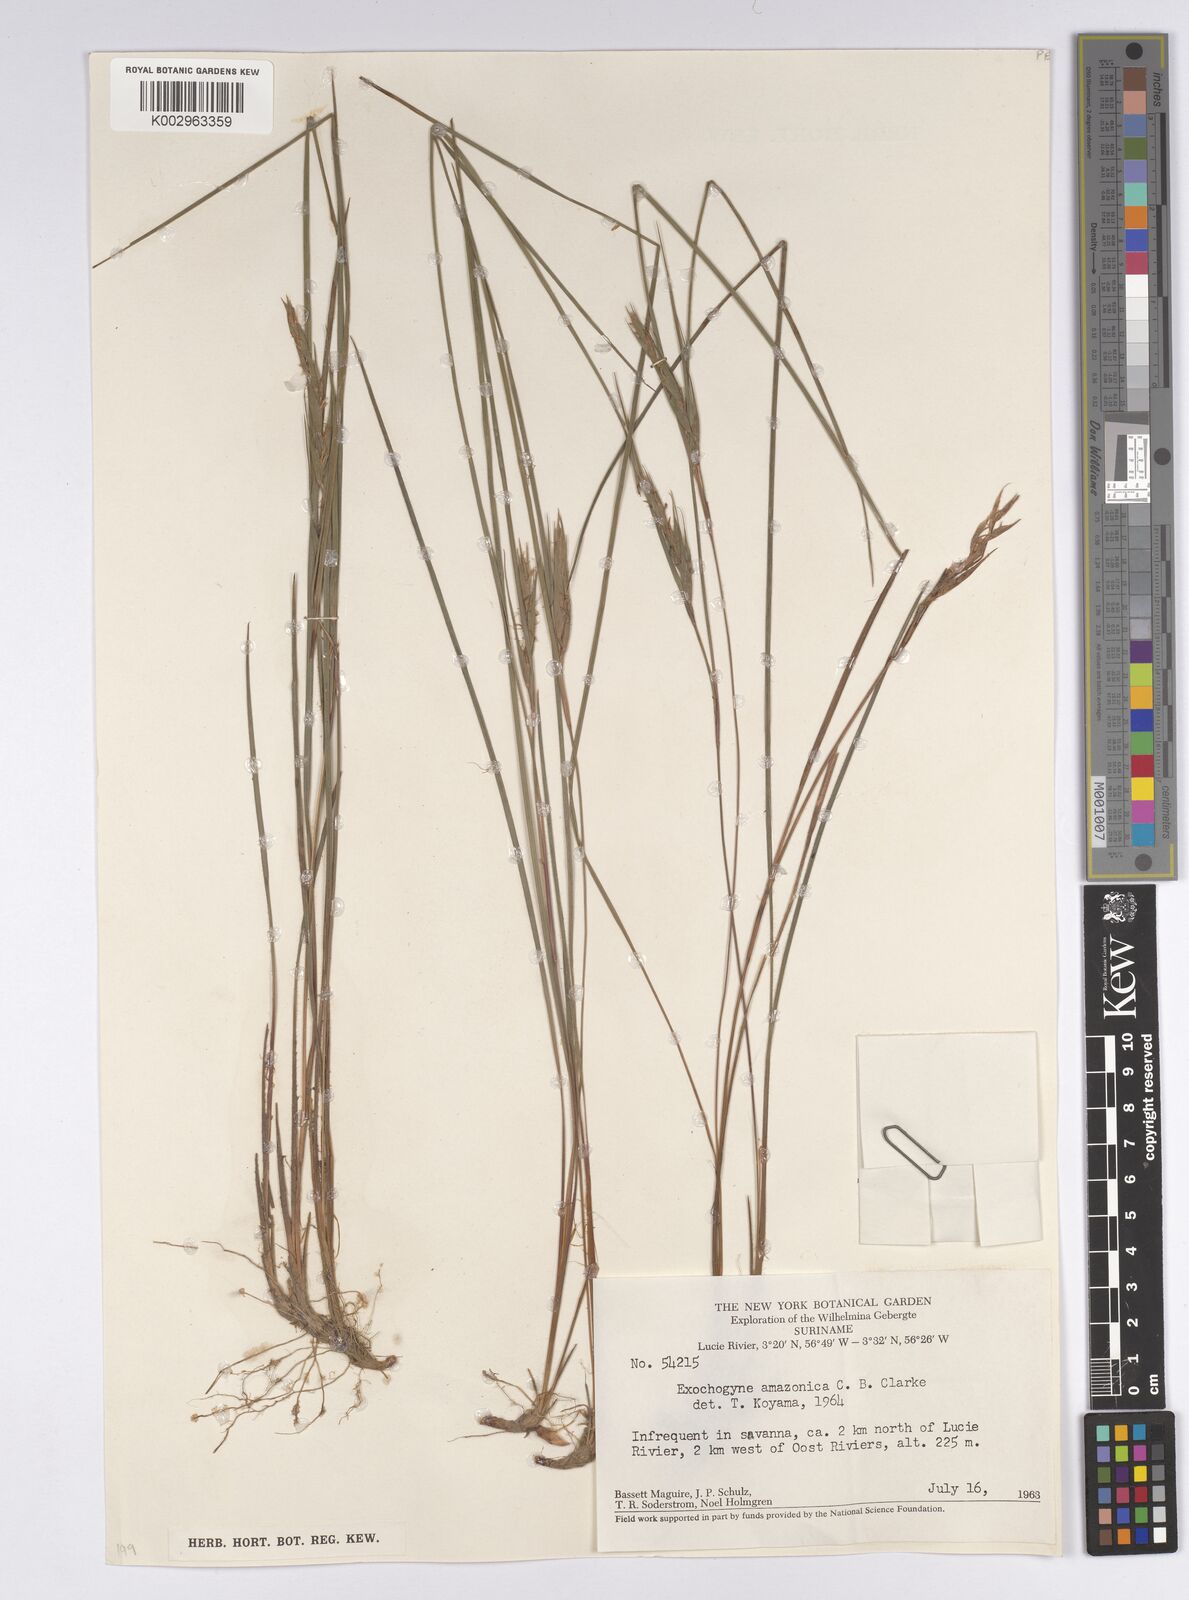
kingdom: Plantae
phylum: Tracheophyta
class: Liliopsida
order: Poales
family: Cyperaceae
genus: Exochogyne
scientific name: Exochogyne amazonica
